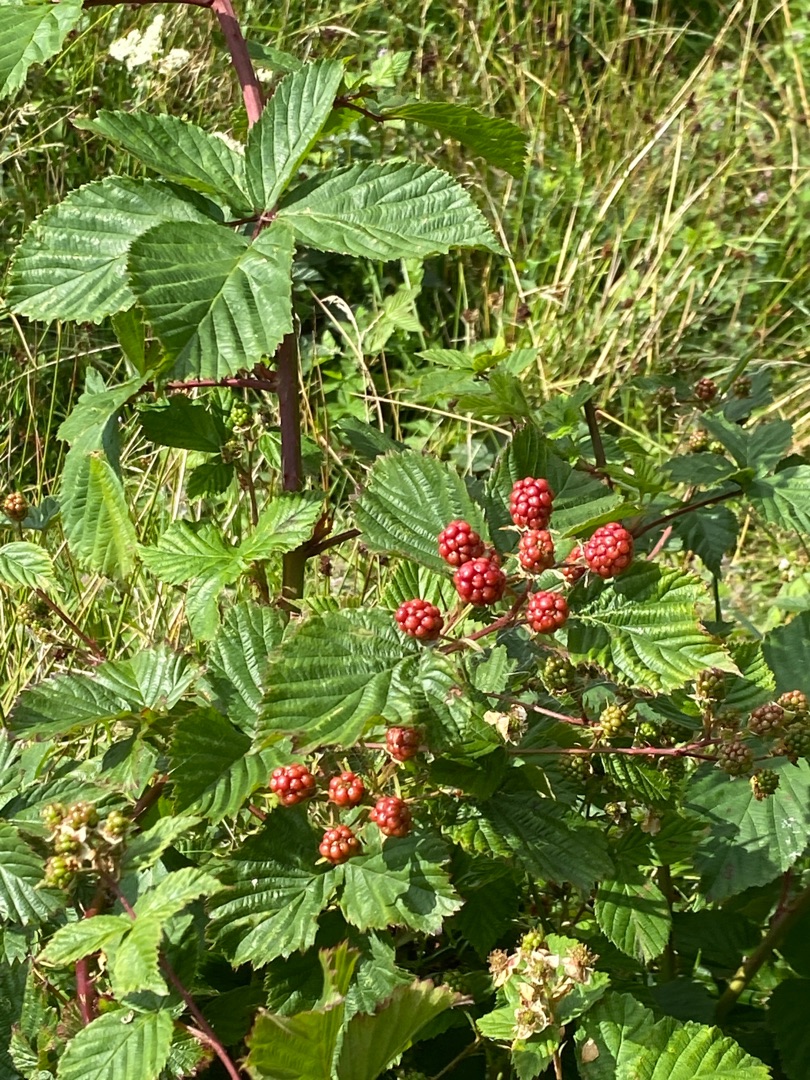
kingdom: Plantae
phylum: Tracheophyta
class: Magnoliopsida
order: Rosales
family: Rosaceae
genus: Rubus
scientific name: Rubus
